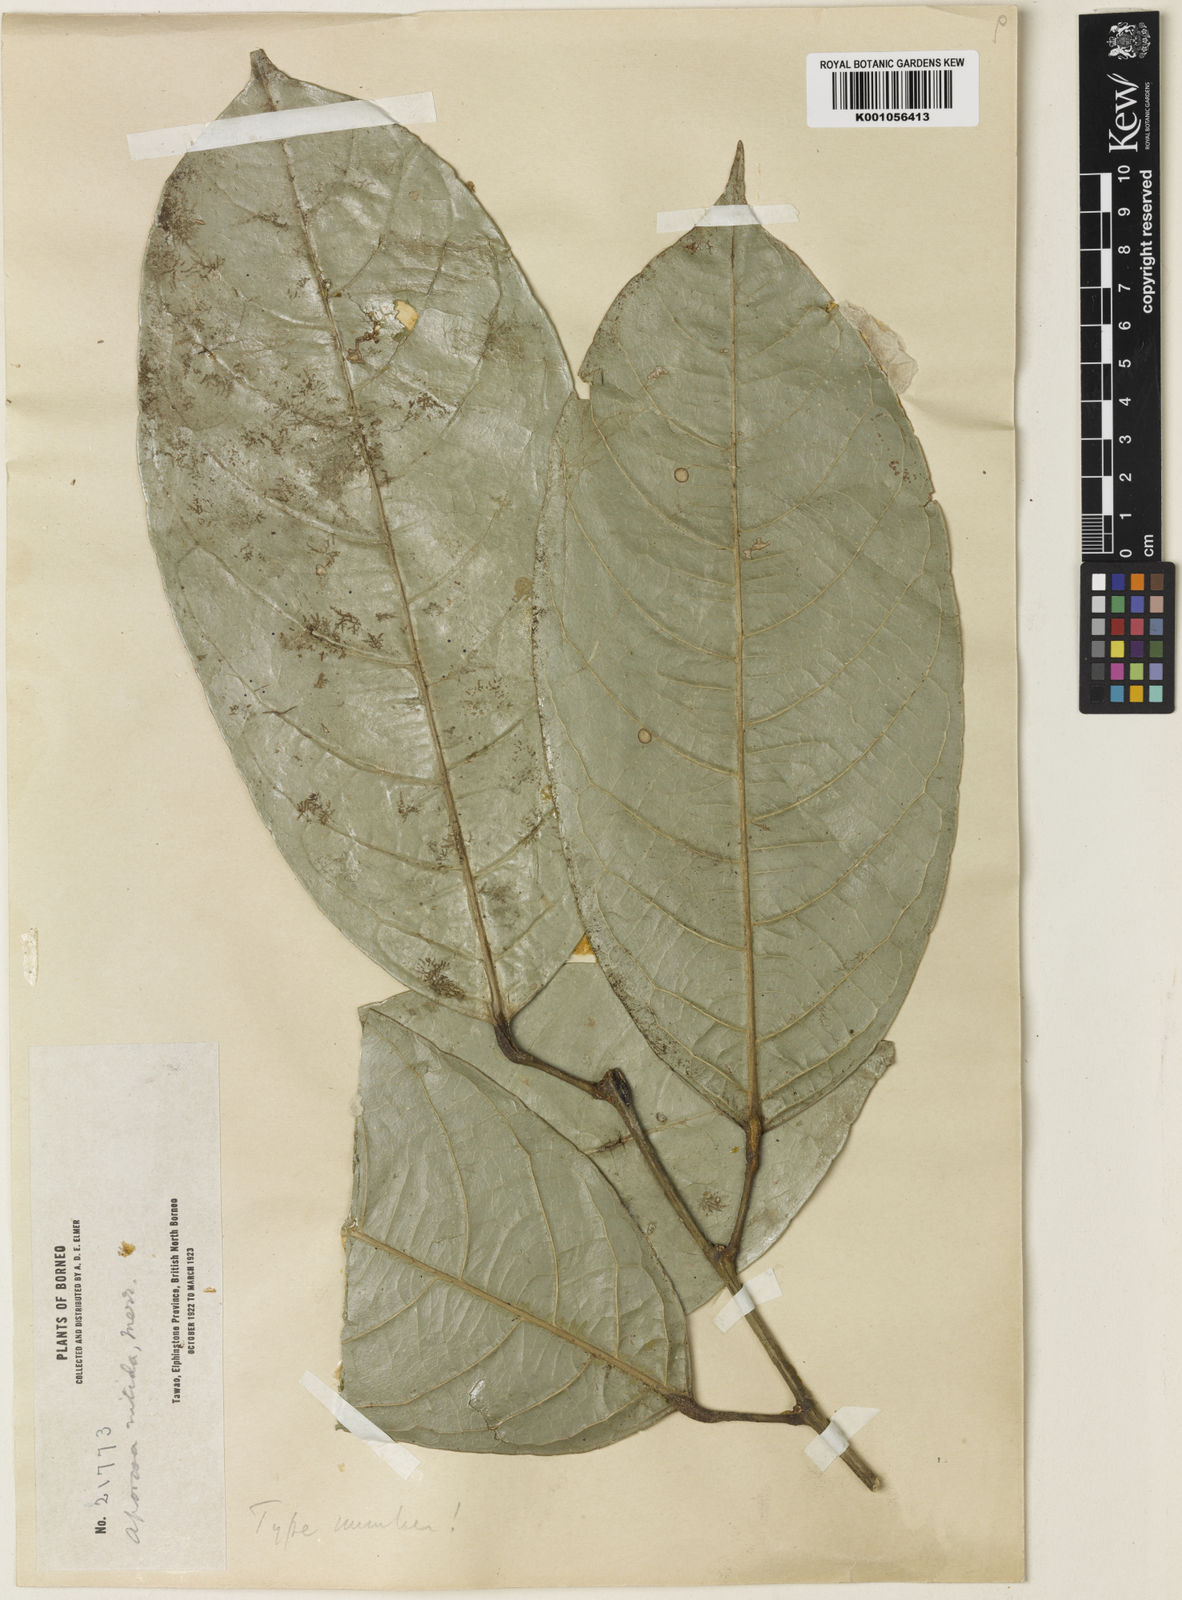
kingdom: Plantae
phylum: Tracheophyta
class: Magnoliopsida
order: Malpighiales
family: Phyllanthaceae
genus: Aporosa
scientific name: Aporosa nitida
